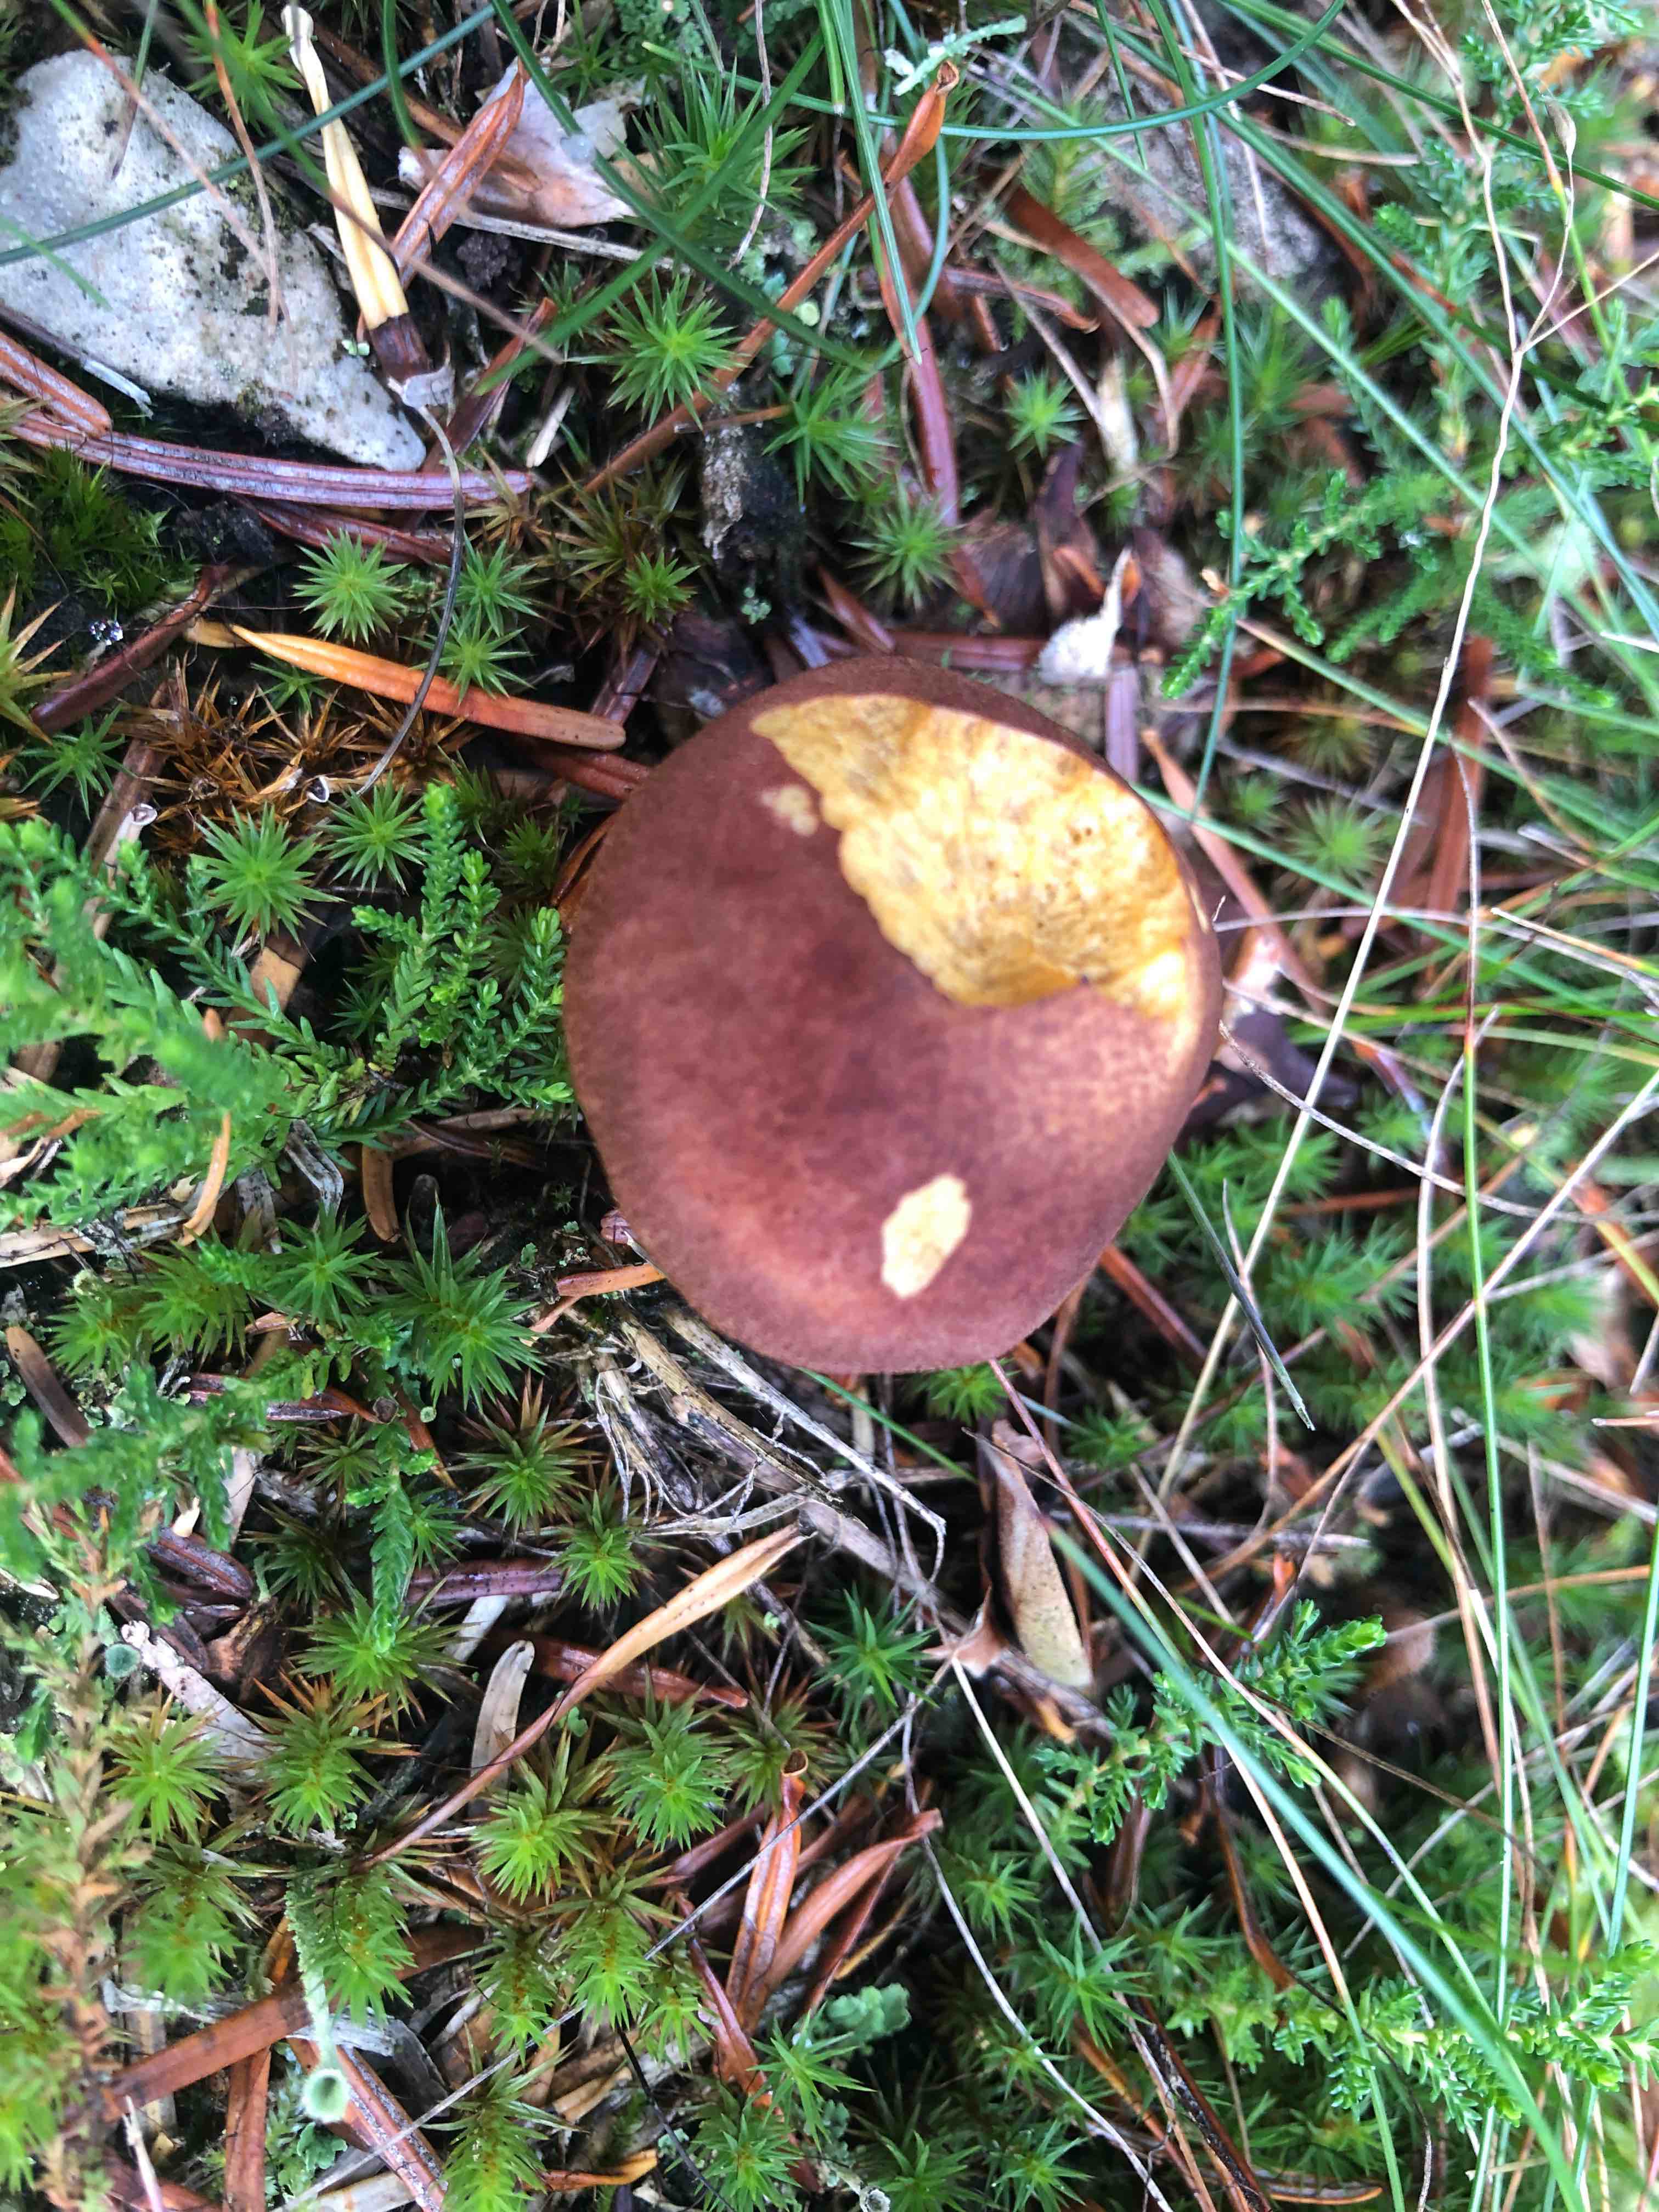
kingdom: Fungi
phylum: Basidiomycota
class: Agaricomycetes
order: Agaricales
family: Tricholomataceae
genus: Tricholomopsis
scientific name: Tricholomopsis rutilans
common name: purpur-væbnerhat
